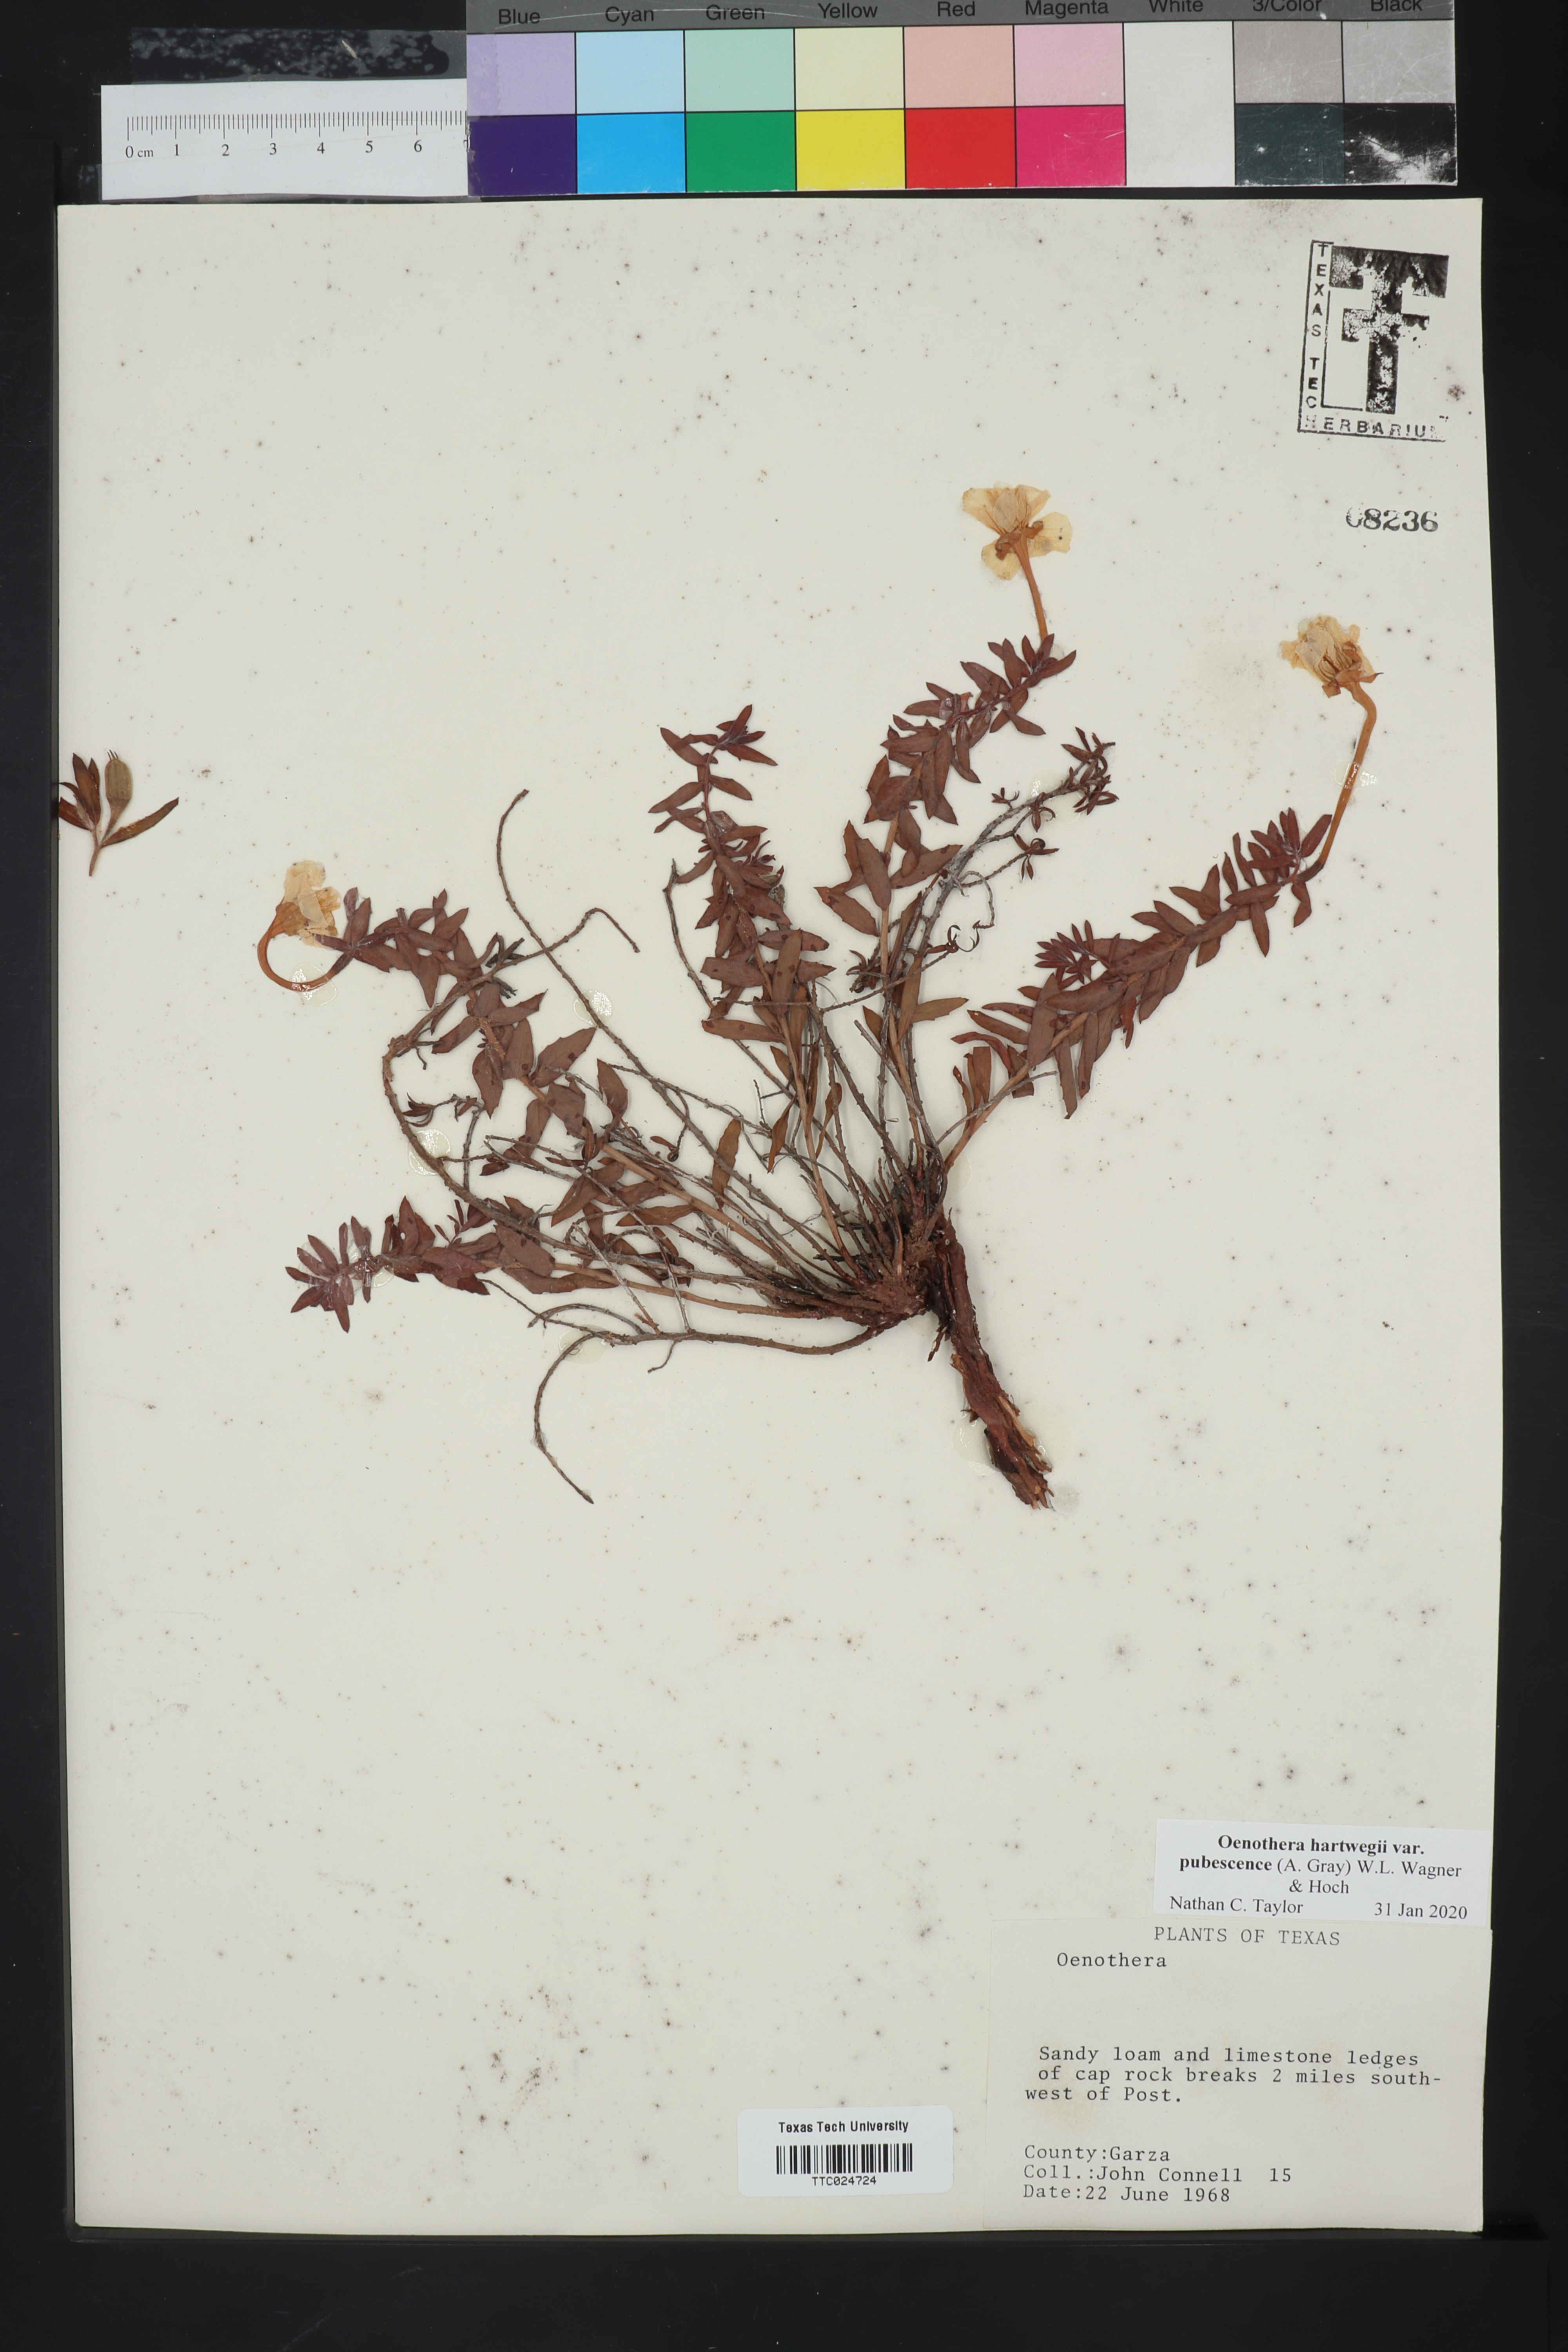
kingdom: Plantae
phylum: Tracheophyta
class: Magnoliopsida
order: Myrtales
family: Onagraceae
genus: Oenothera
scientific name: Oenothera hartwegii
